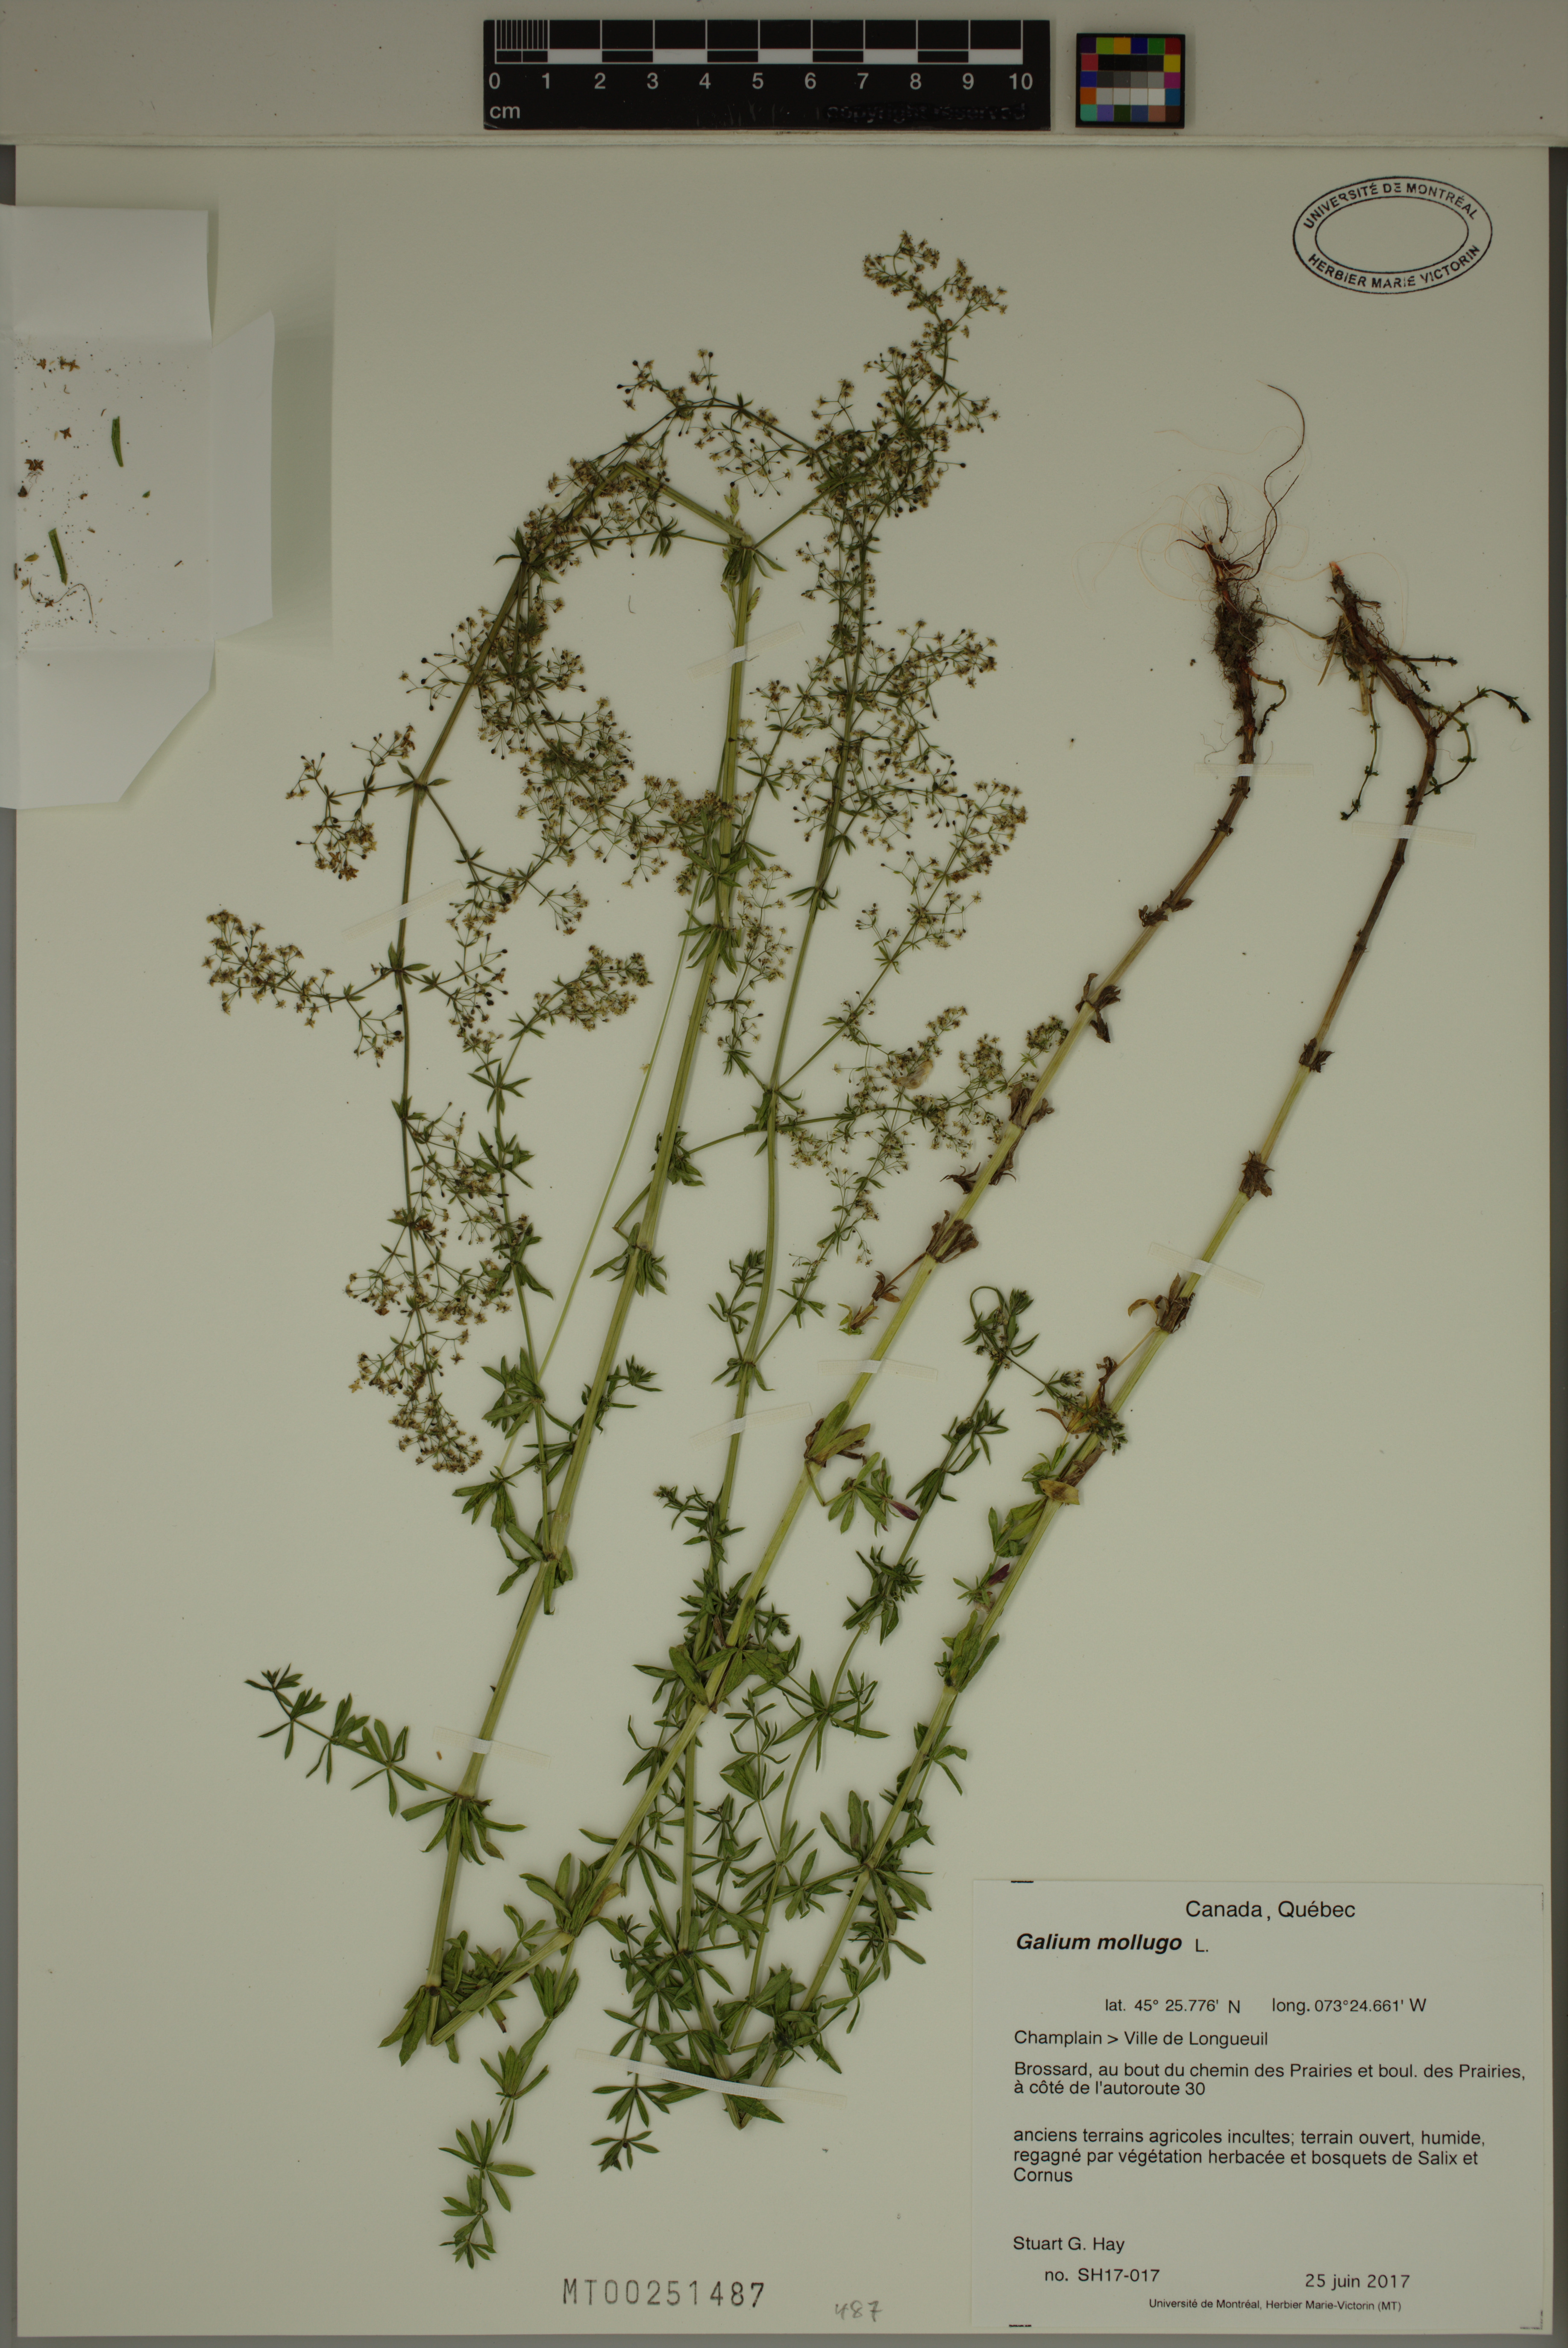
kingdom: Plantae
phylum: Tracheophyta
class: Magnoliopsida
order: Gentianales
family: Rubiaceae
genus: Galium
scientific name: Galium mollugo
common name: Hedge bedstraw
